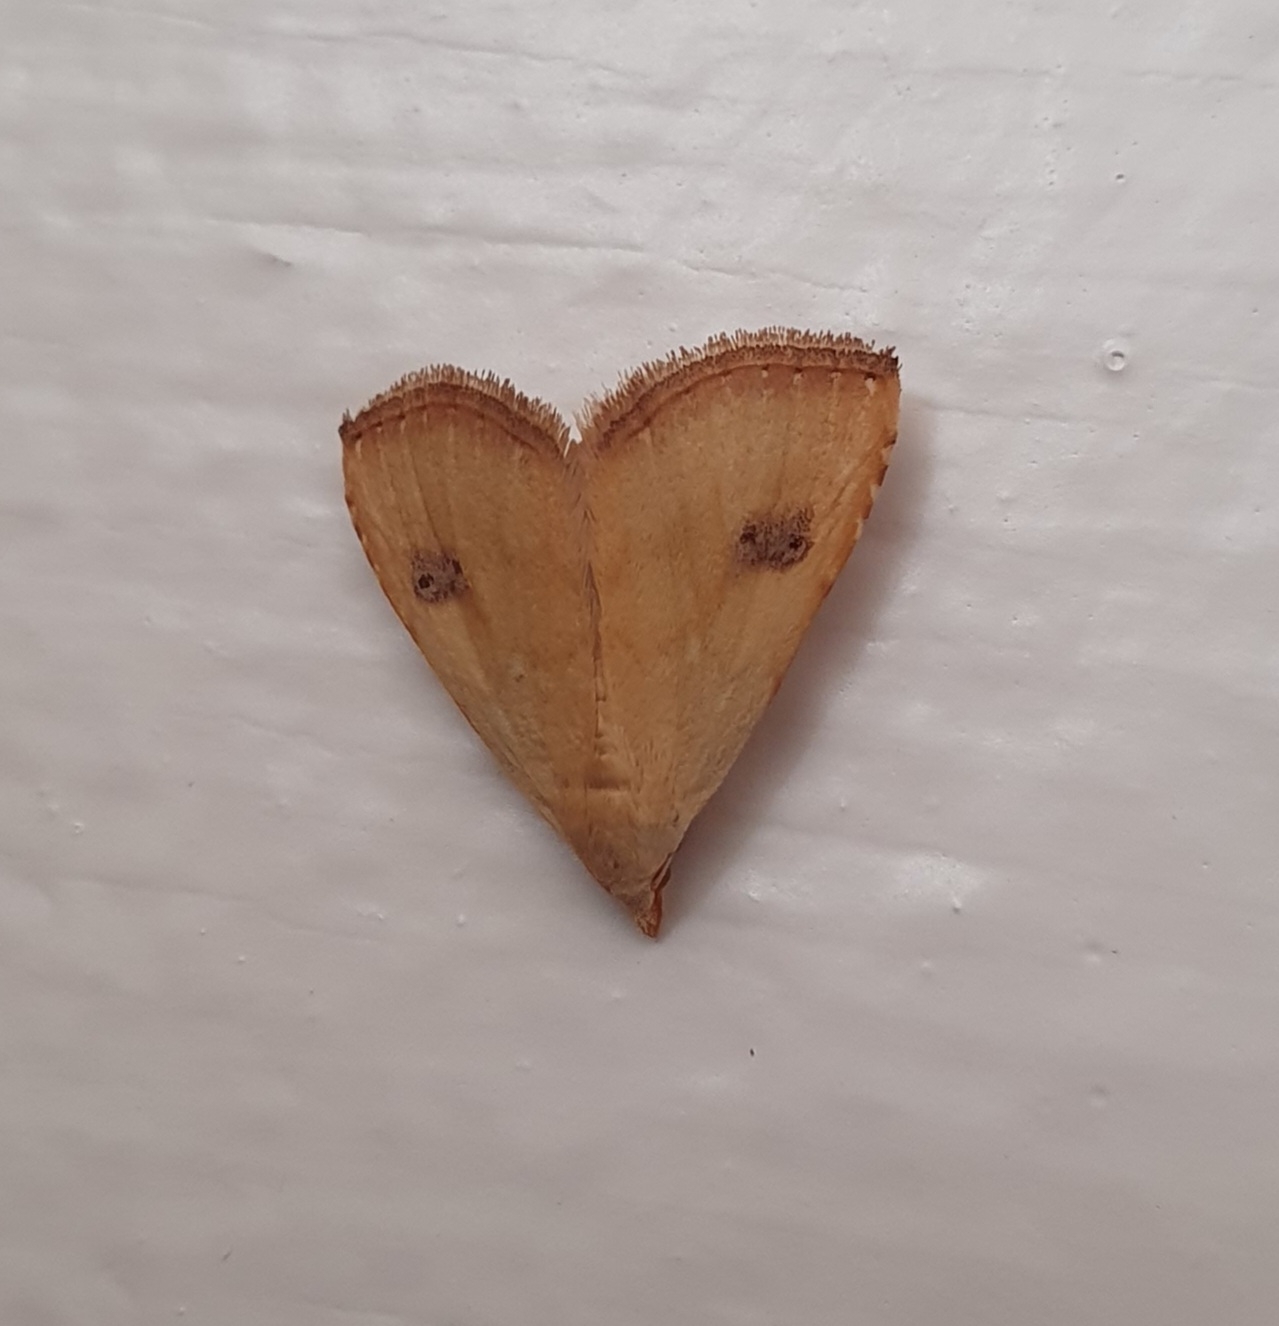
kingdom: Animalia
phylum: Arthropoda
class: Insecta
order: Lepidoptera
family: Erebidae
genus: Rivula
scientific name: Rivula sericealis
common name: Lille å-ugle
